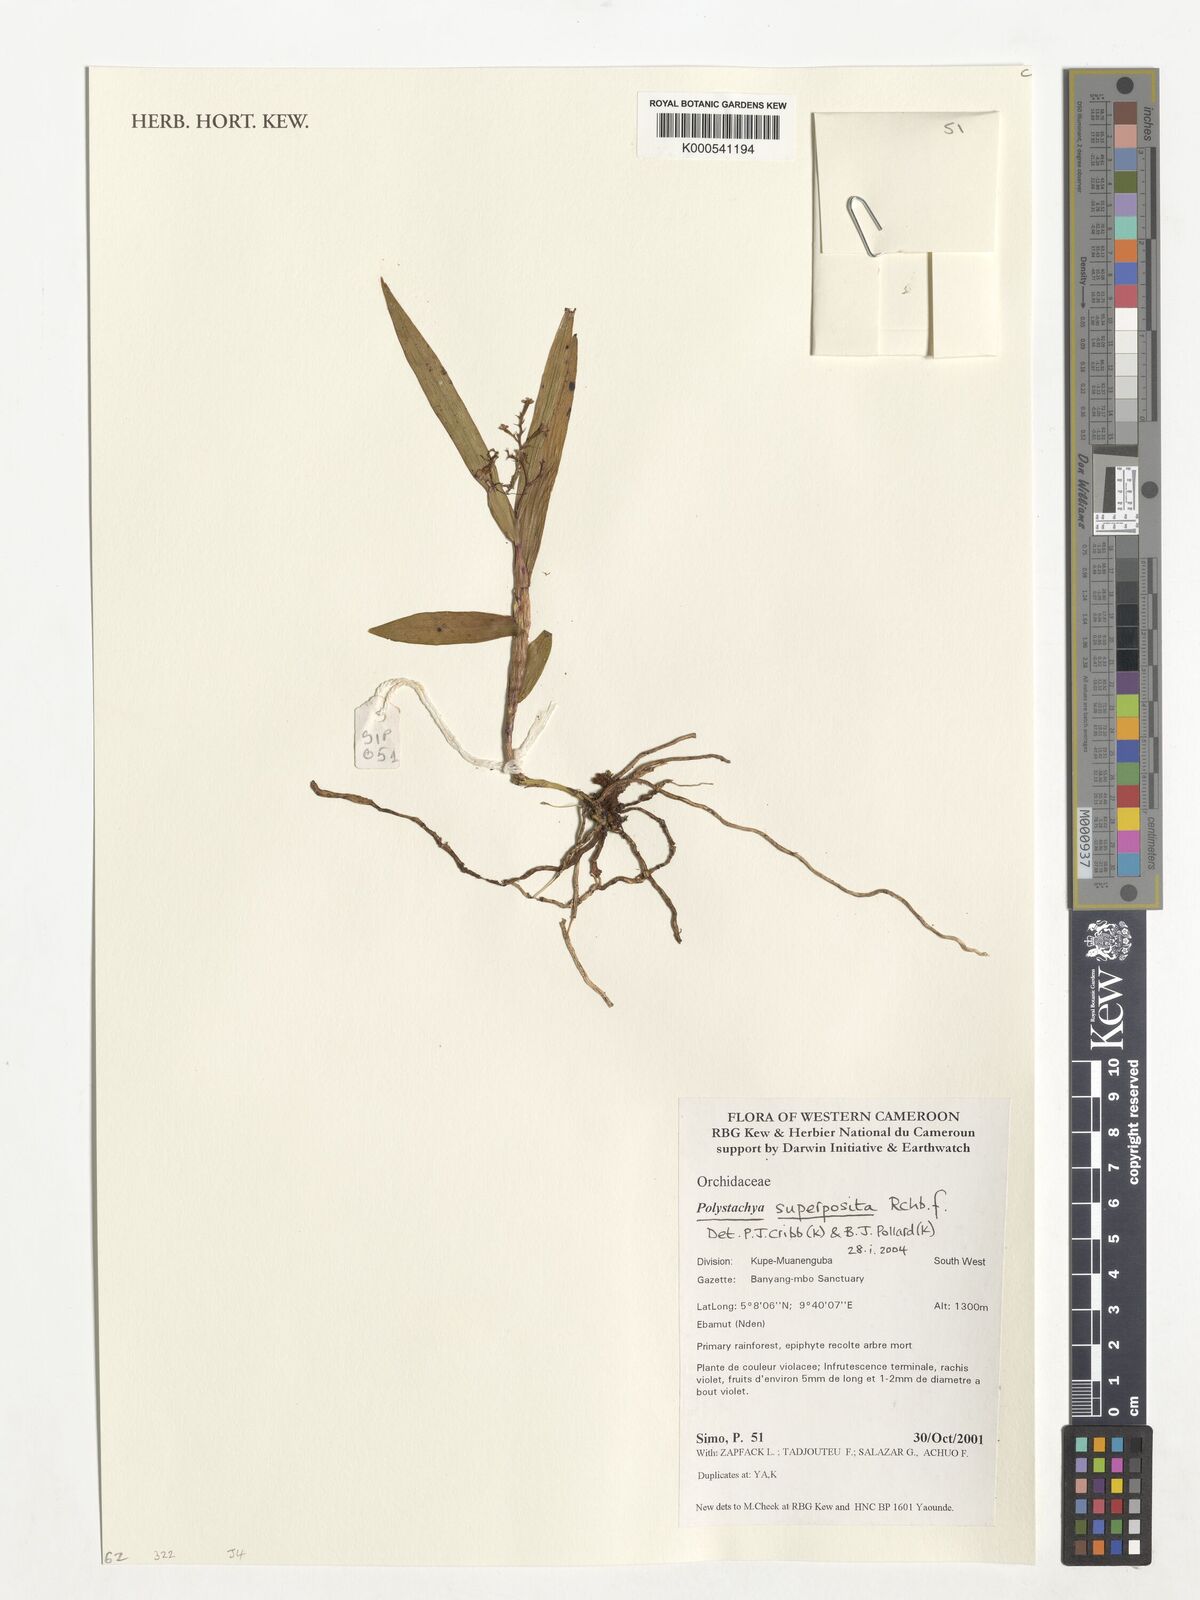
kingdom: Plantae
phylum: Tracheophyta
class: Liliopsida
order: Asparagales
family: Orchidaceae
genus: Polystachya
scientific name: Polystachya superposita
